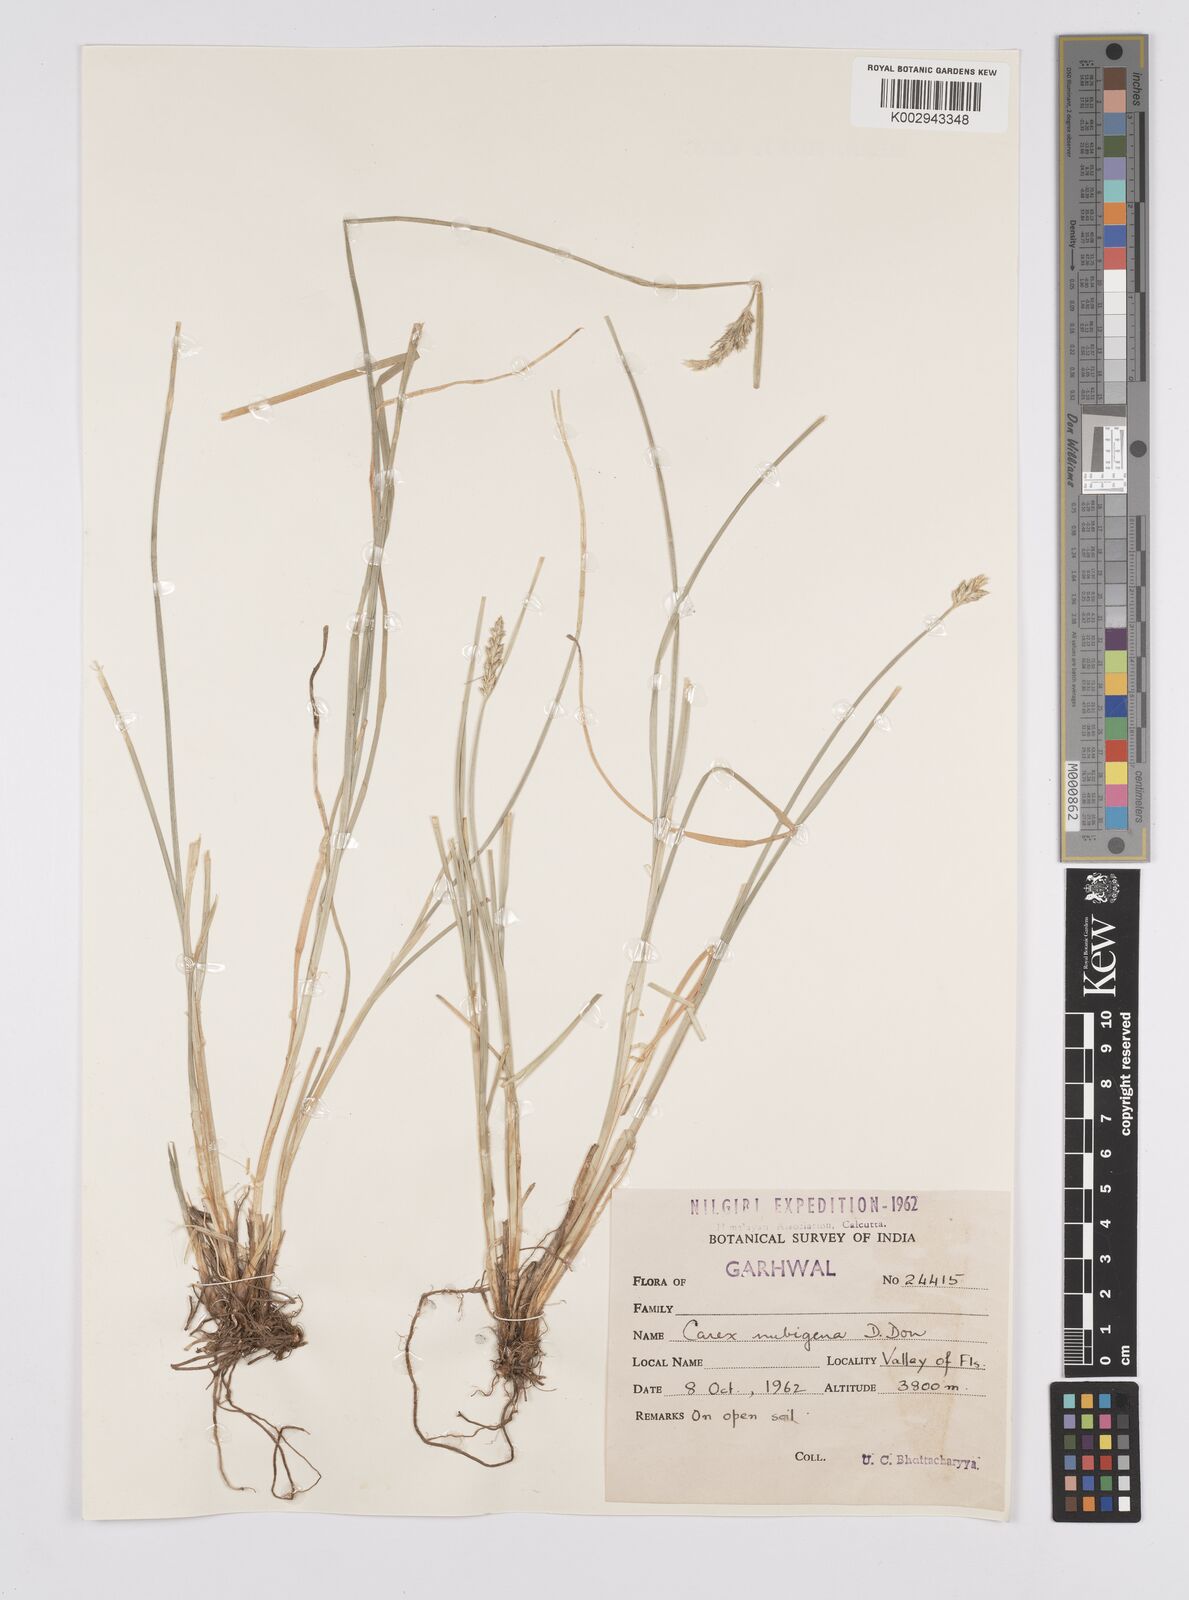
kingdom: Plantae
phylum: Tracheophyta
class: Liliopsida
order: Poales
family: Cyperaceae
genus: Carex
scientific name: Carex nubigena
